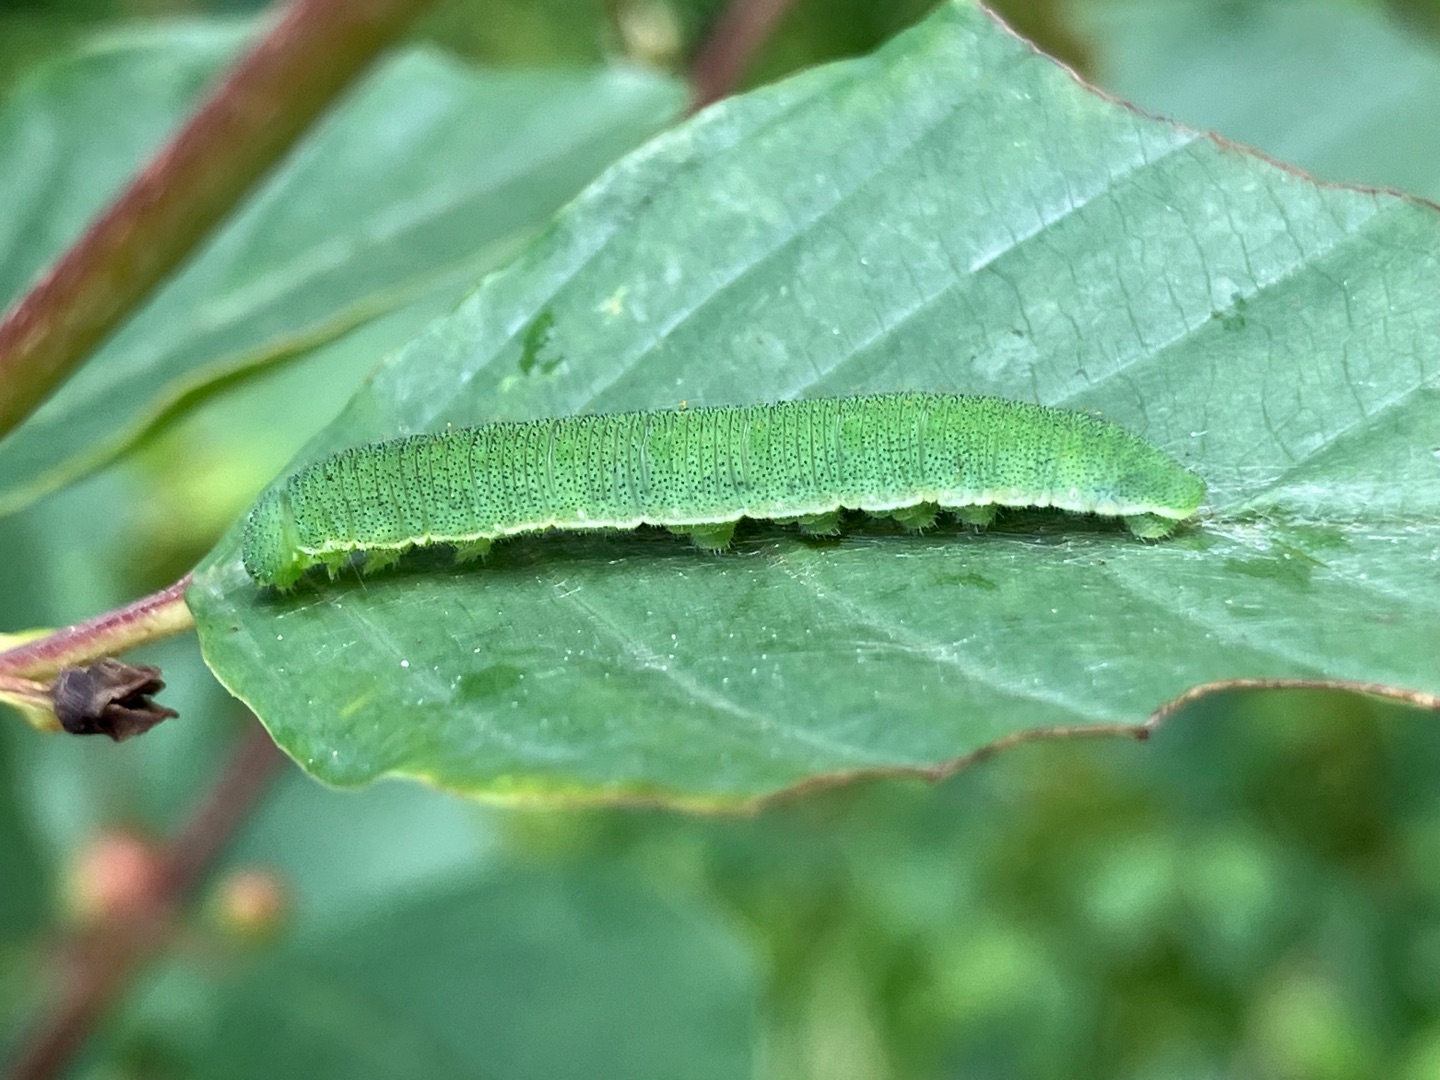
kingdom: Animalia
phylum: Arthropoda
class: Insecta
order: Lepidoptera
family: Pieridae
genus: Gonepteryx
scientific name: Gonepteryx rhamni
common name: Citronsommerfugl
